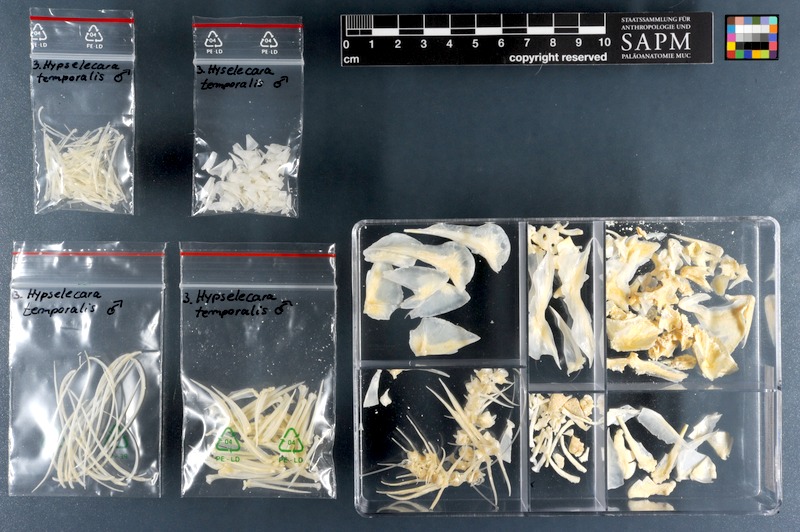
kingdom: Animalia
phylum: Chordata
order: Perciformes
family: Cichlidae
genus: Hypselecara
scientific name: Hypselecara temporalis
